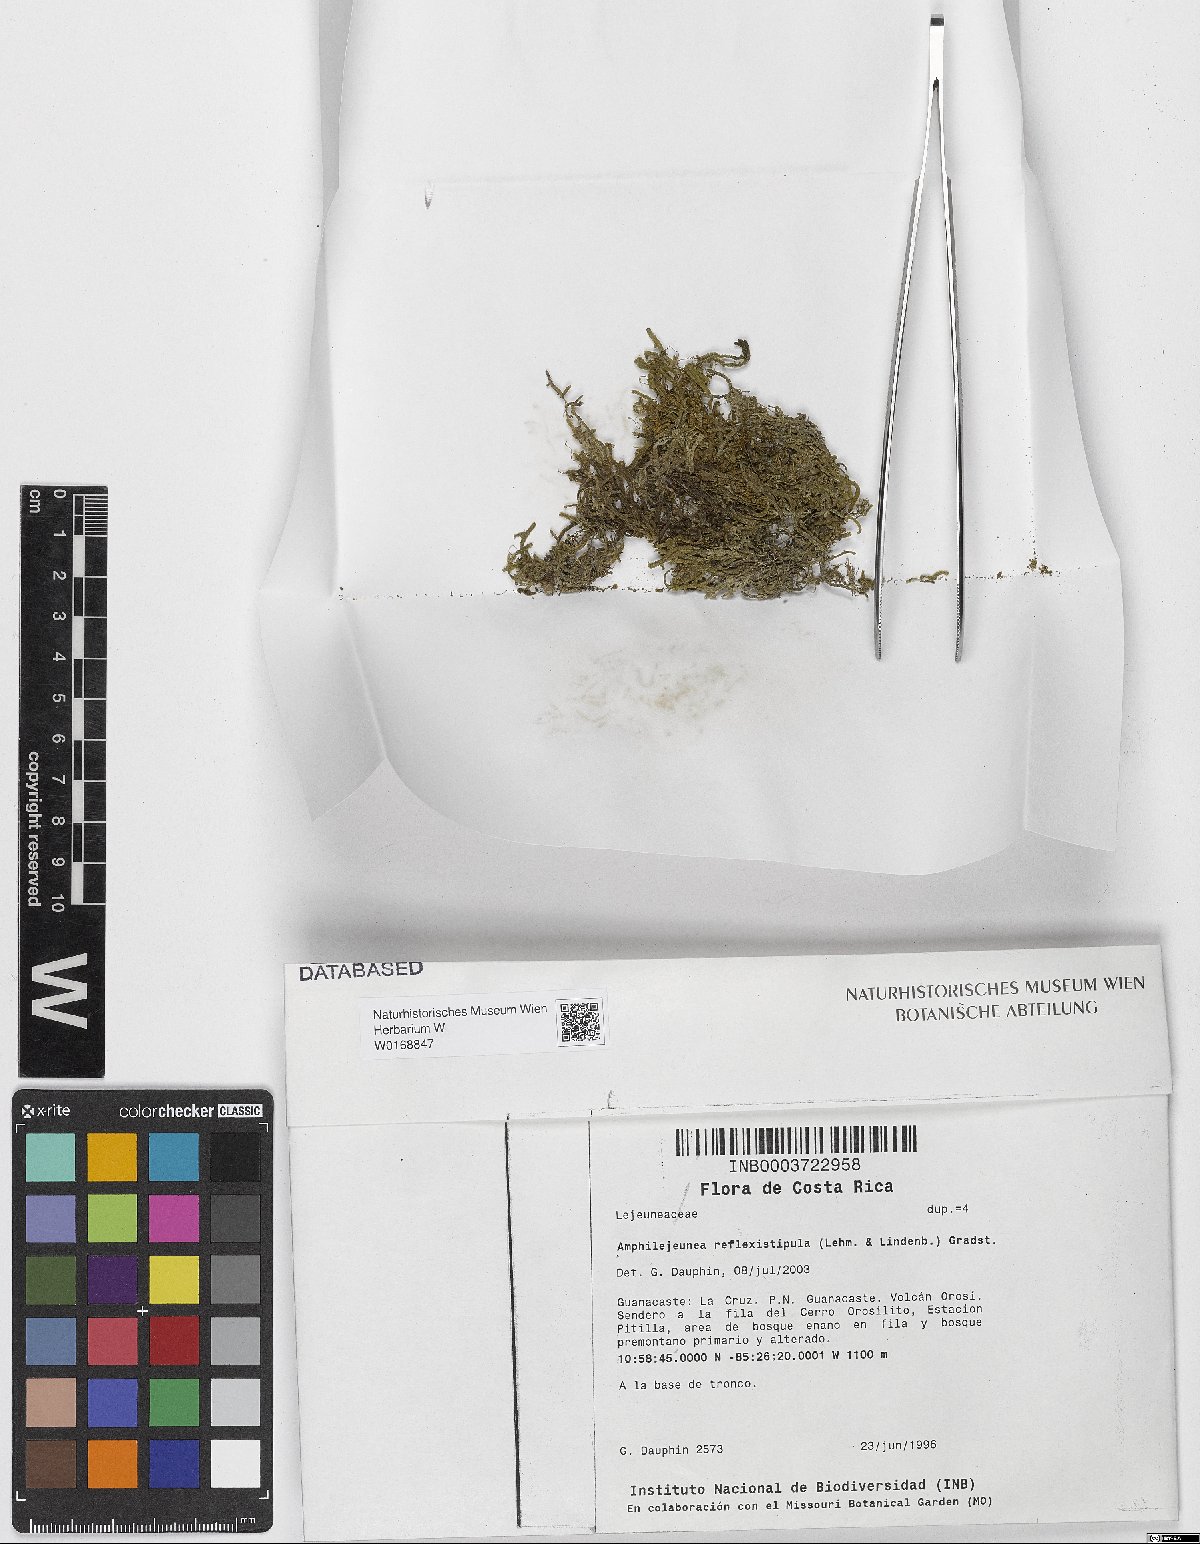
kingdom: Plantae
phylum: Marchantiophyta
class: Jungermanniopsida
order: Porellales
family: Lejeuneaceae
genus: Lejeunea
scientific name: Lejeunea reflexistipula
